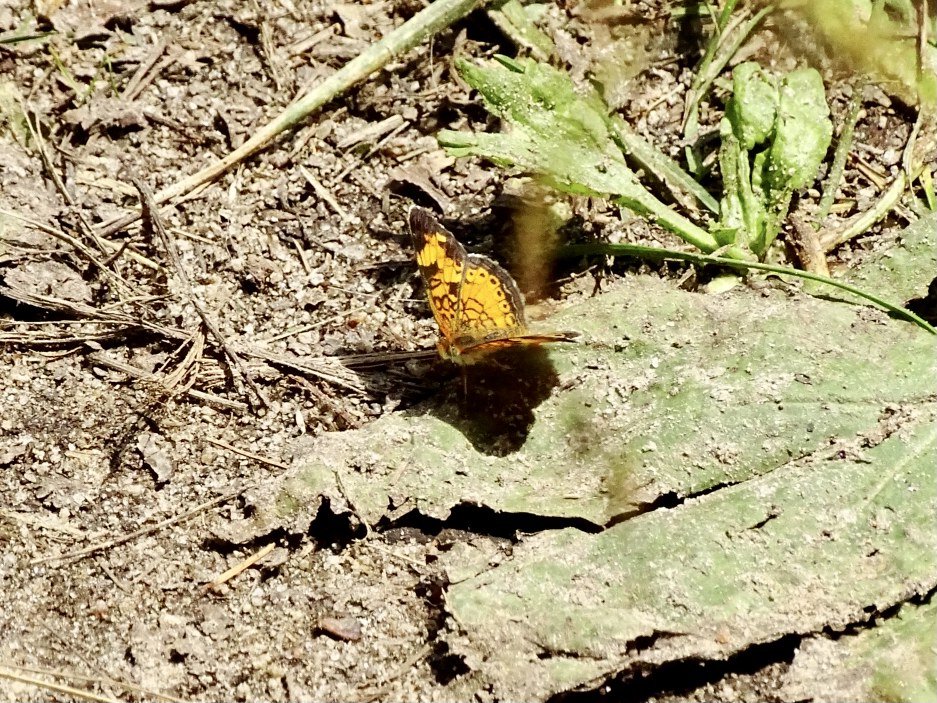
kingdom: Animalia
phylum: Arthropoda
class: Insecta
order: Lepidoptera
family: Nymphalidae
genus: Phyciodes
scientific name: Phyciodes tharos
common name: Pearl Crescent
